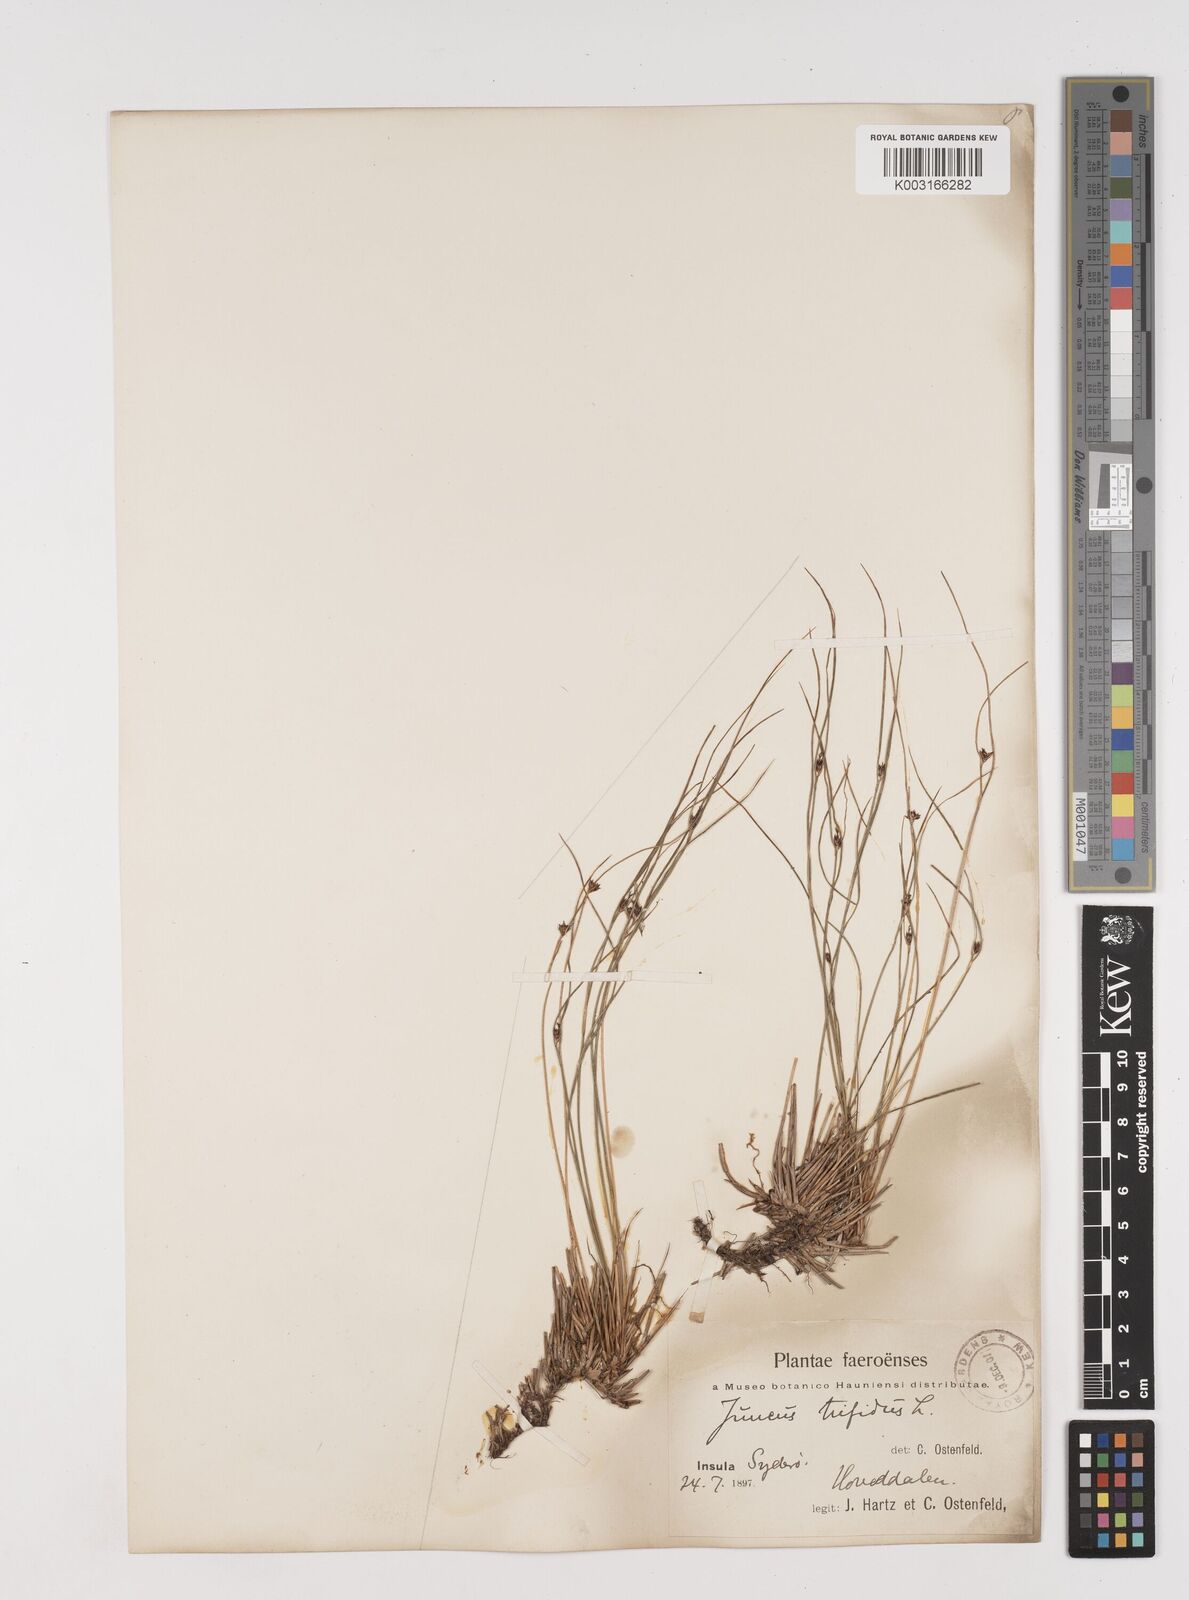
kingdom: Plantae
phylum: Tracheophyta
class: Liliopsida
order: Poales
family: Juncaceae
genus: Oreojuncus
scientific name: Oreojuncus trifidus
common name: Highland rush
